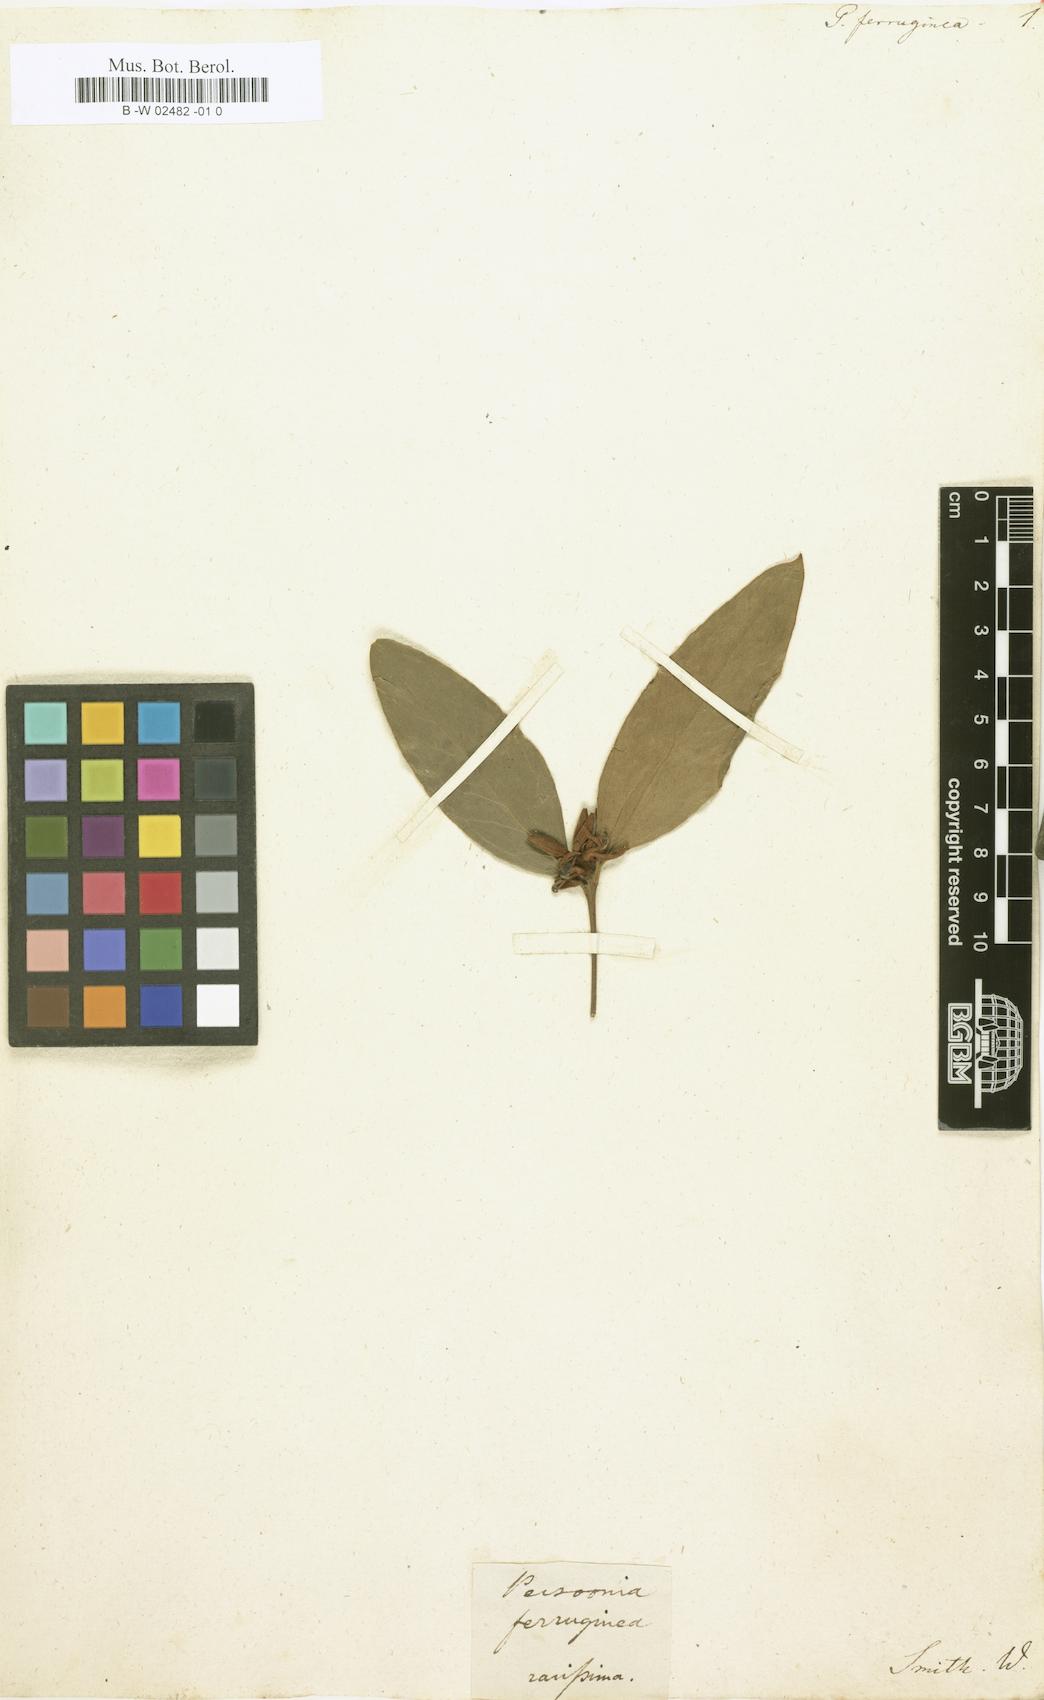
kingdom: Plantae
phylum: Tracheophyta
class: Magnoliopsida
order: Proteales
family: Proteaceae
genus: Persoonia
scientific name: Persoonia laurina
